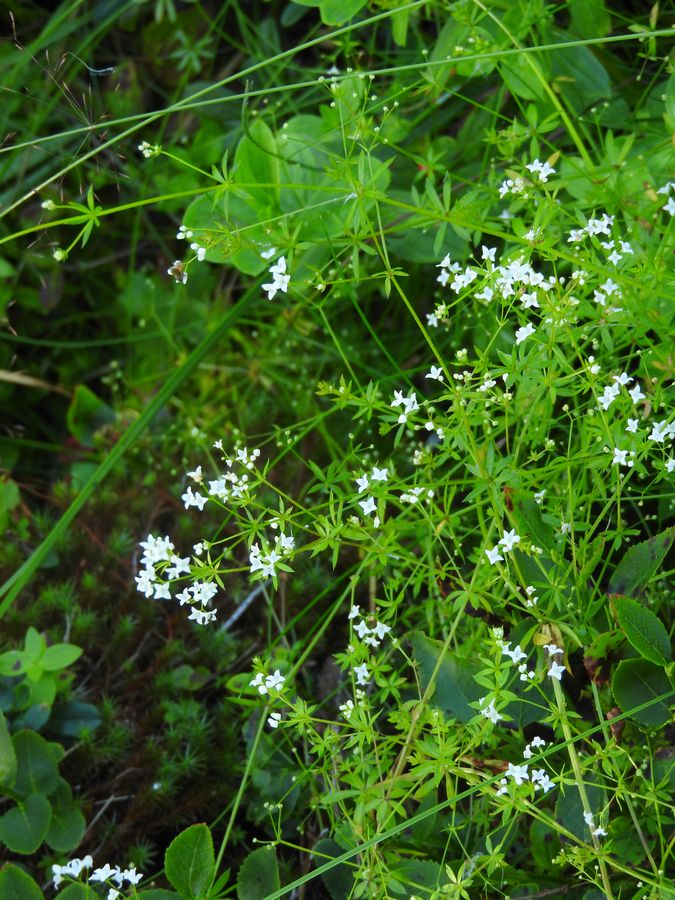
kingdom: Plantae
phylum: Tracheophyta
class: Magnoliopsida
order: Gentianales
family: Rubiaceae
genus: Galium
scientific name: Galium uliginosum
